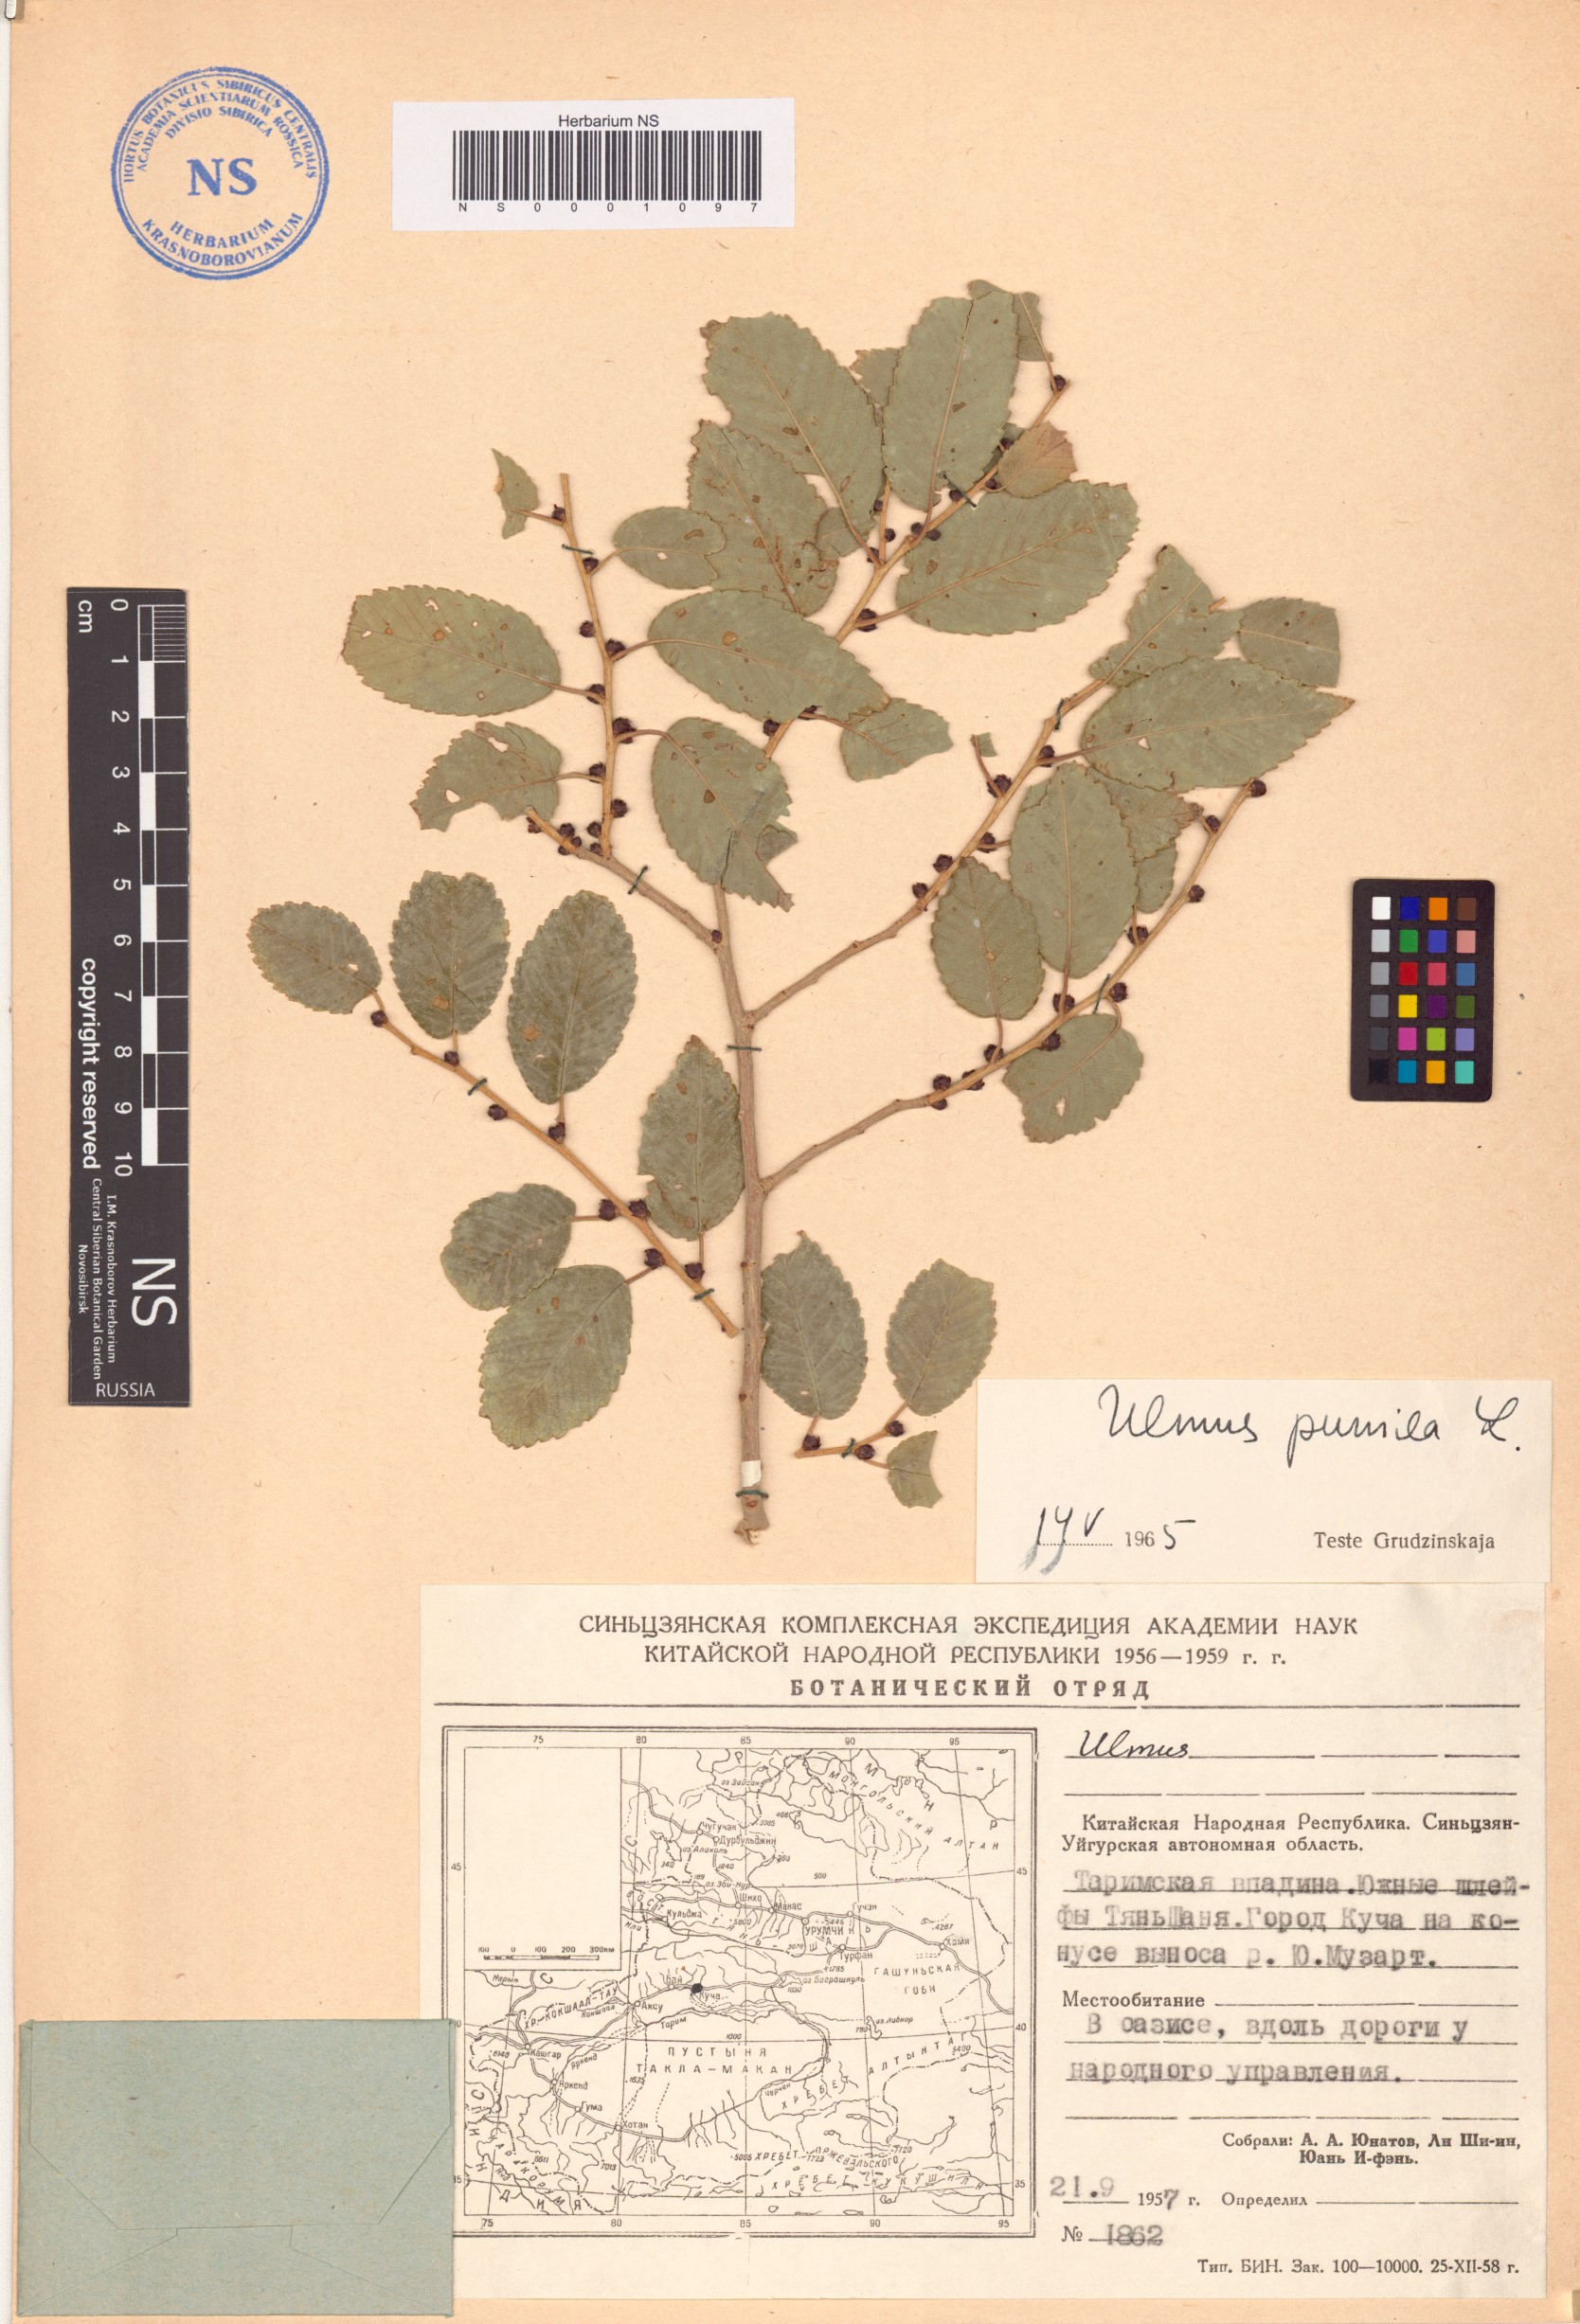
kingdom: Plantae
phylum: Tracheophyta
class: Magnoliopsida
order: Rosales
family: Ulmaceae
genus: Ulmus
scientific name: Ulmus pumila
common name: Siberian elm
